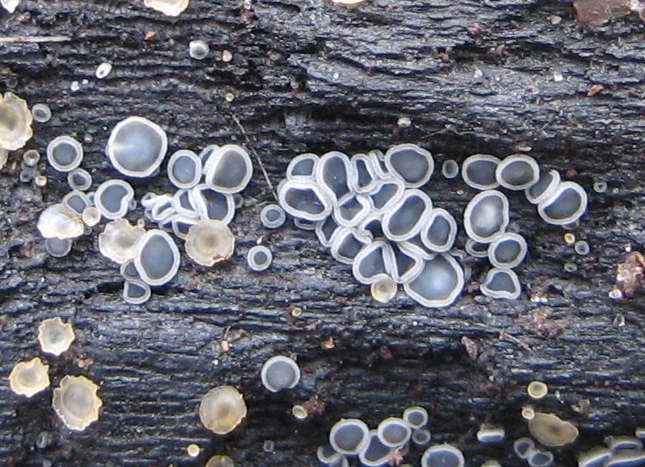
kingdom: Fungi
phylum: Ascomycota
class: Leotiomycetes
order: Helotiales
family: Mollisiaceae
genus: Mollisia
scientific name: Mollisia cinerea
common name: almindelig gråskive
